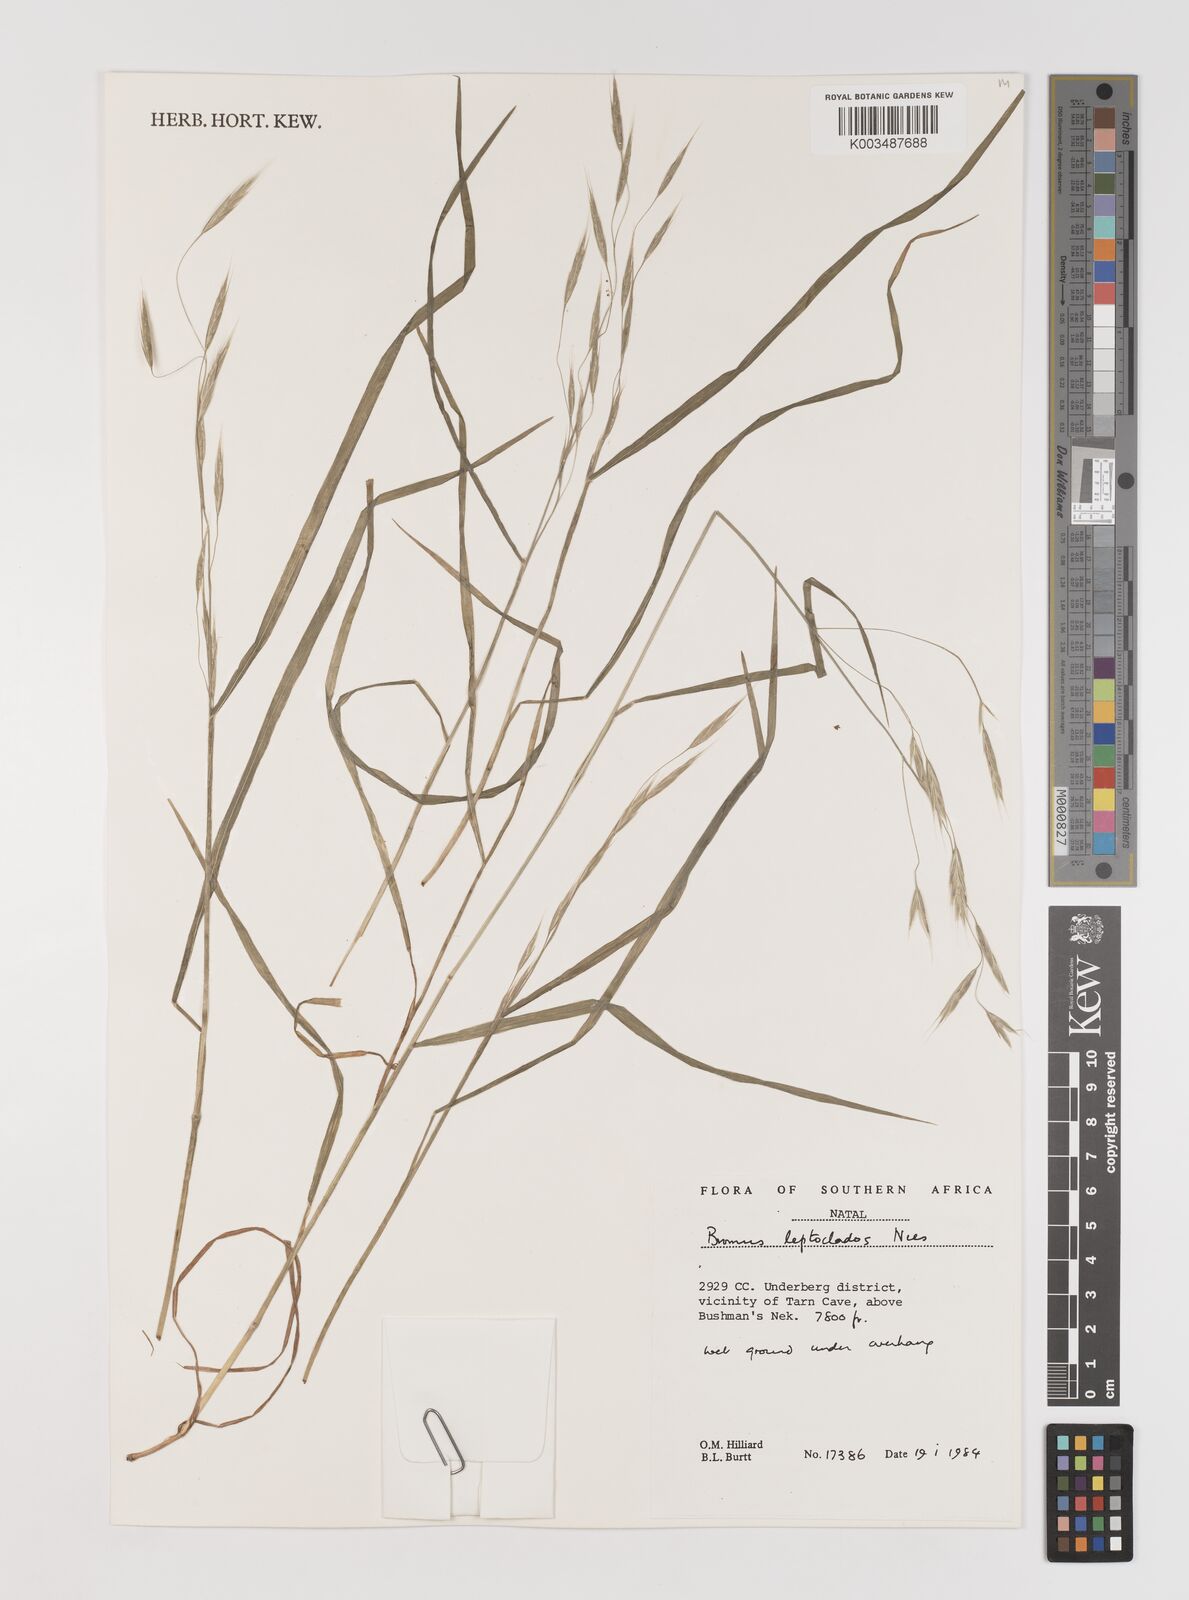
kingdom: Plantae
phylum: Tracheophyta
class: Liliopsida
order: Poales
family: Poaceae
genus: Bromus
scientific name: Bromus leptoclados
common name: Mountain bromegrass
